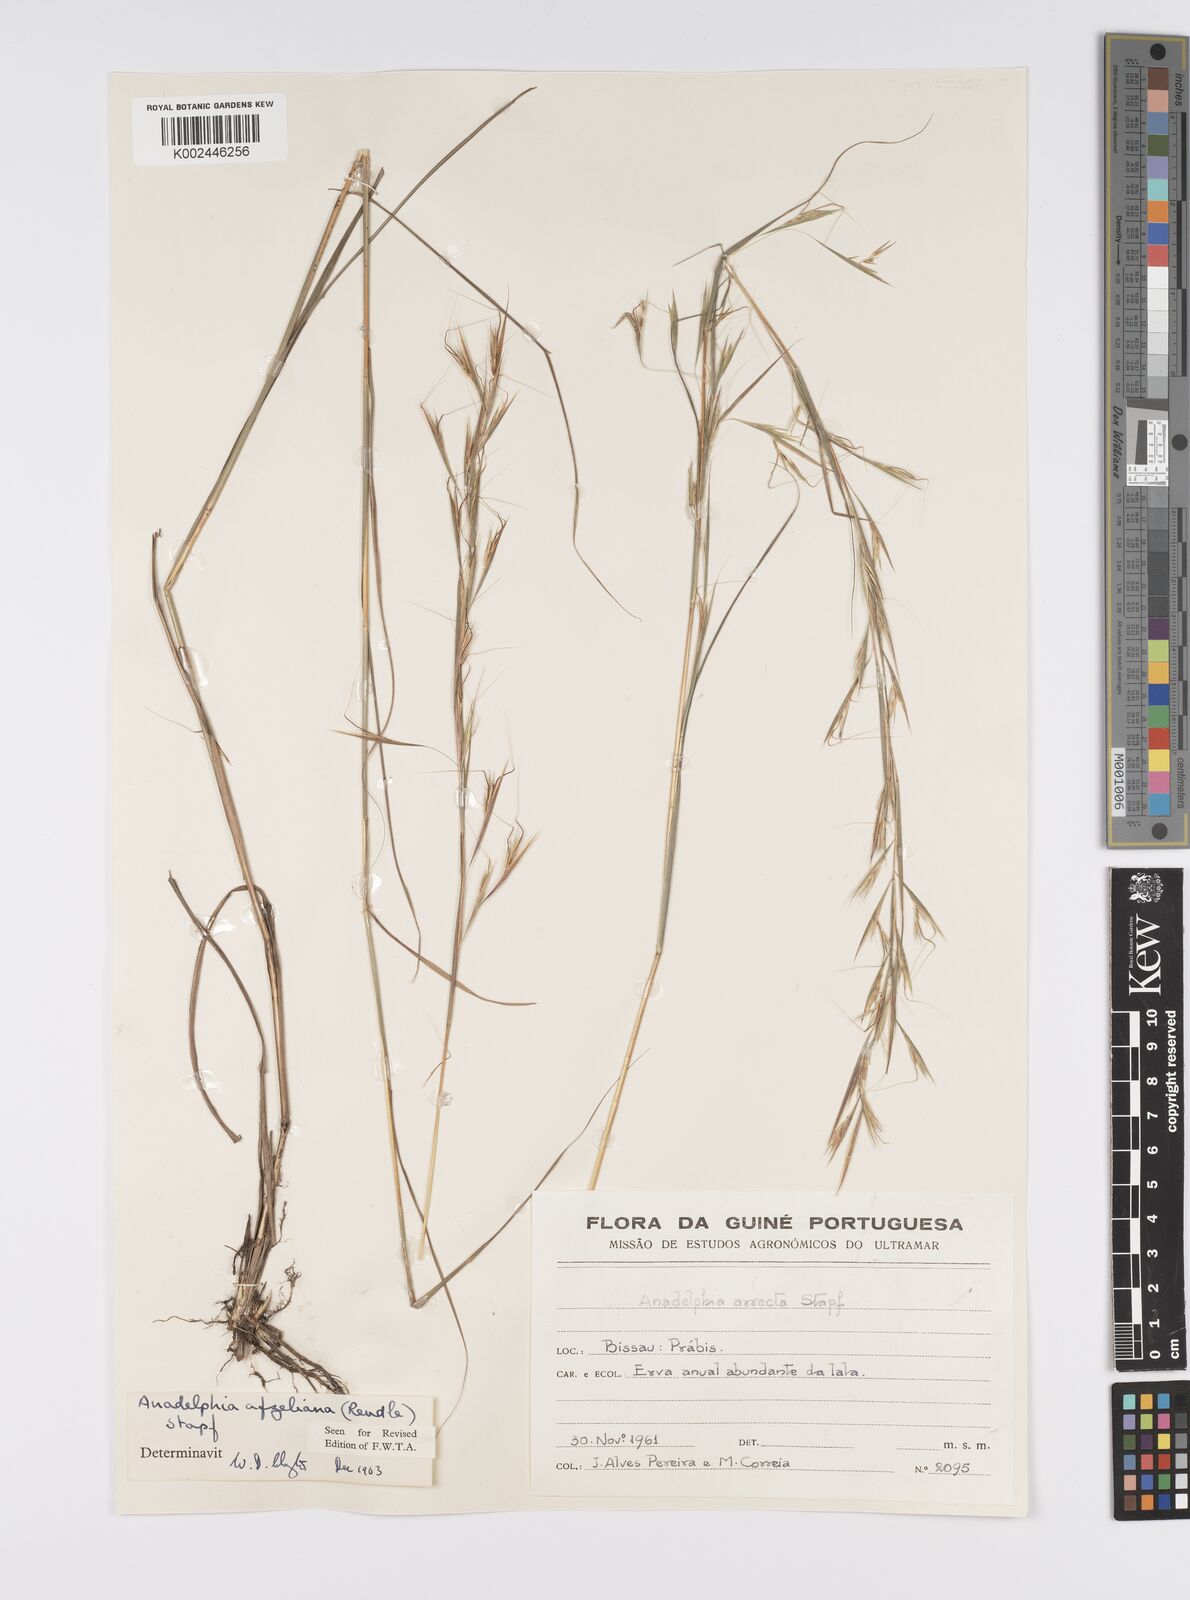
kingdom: Plantae
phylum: Tracheophyta
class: Liliopsida
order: Poales
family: Poaceae
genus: Anadelphia
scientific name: Anadelphia afzeliana
